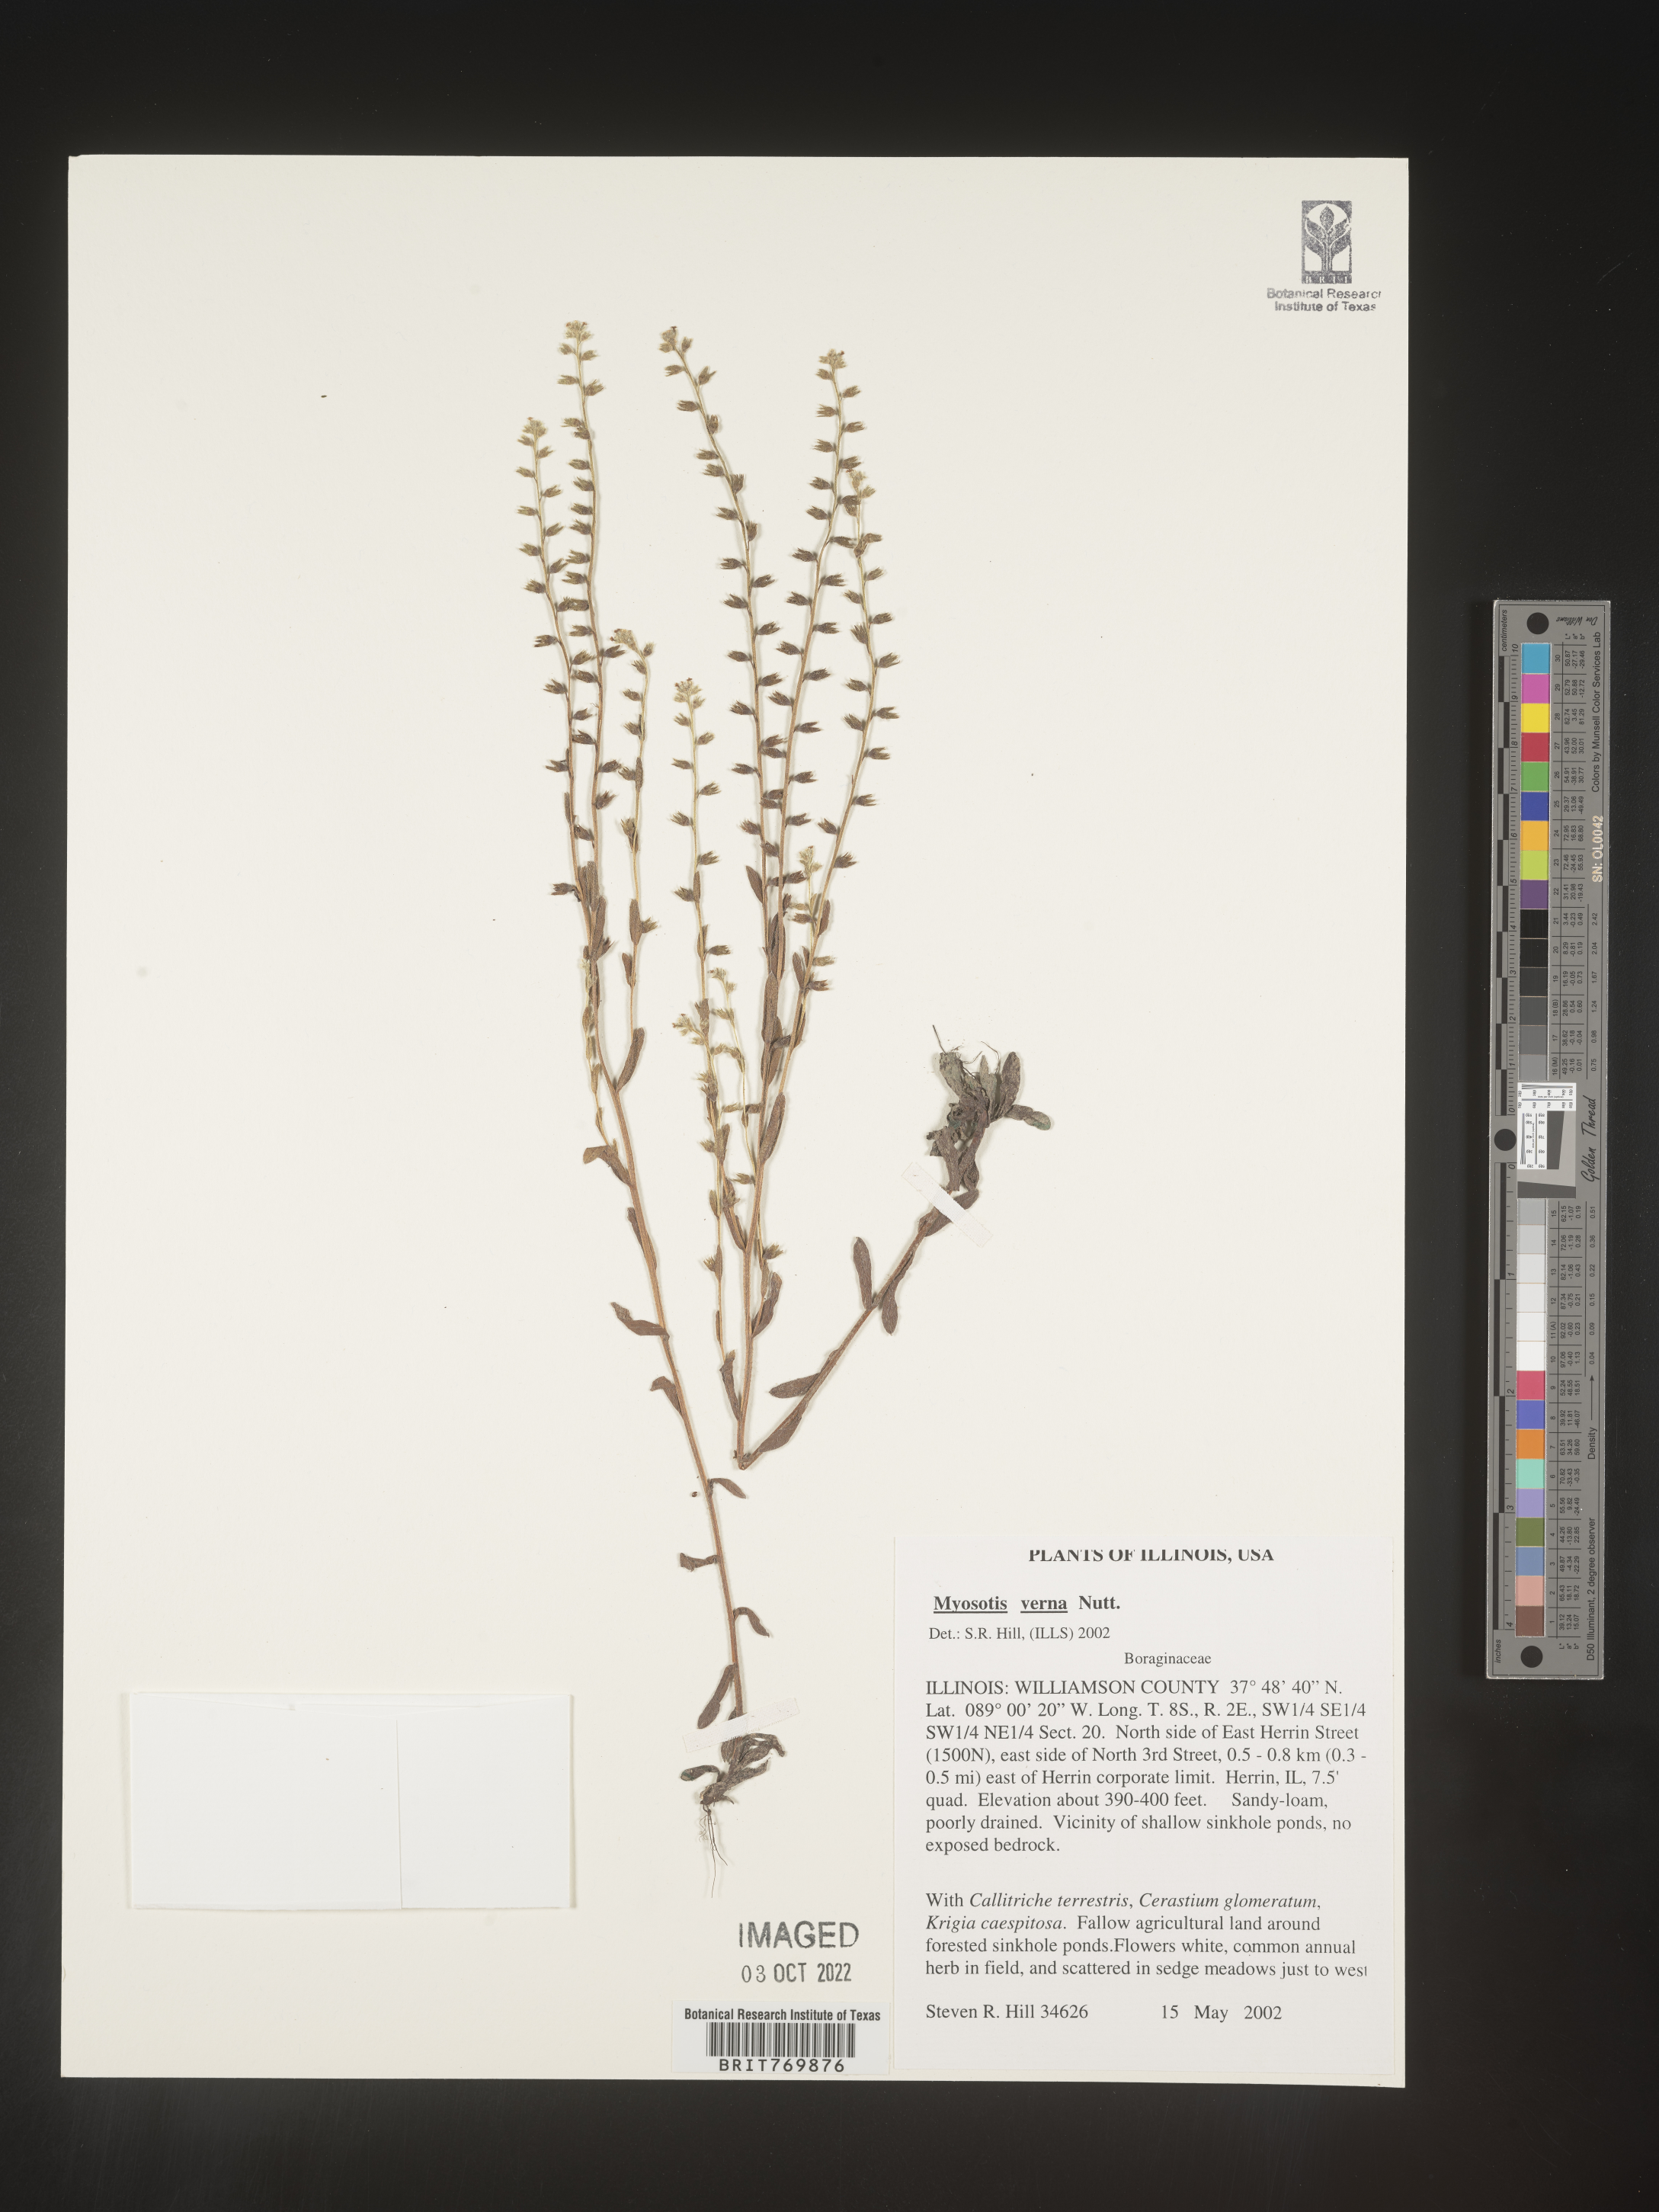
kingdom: Plantae
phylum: Tracheophyta
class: Magnoliopsida
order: Boraginales
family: Boraginaceae
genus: Myosotis
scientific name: Myosotis verna
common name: Early forget-me-not
